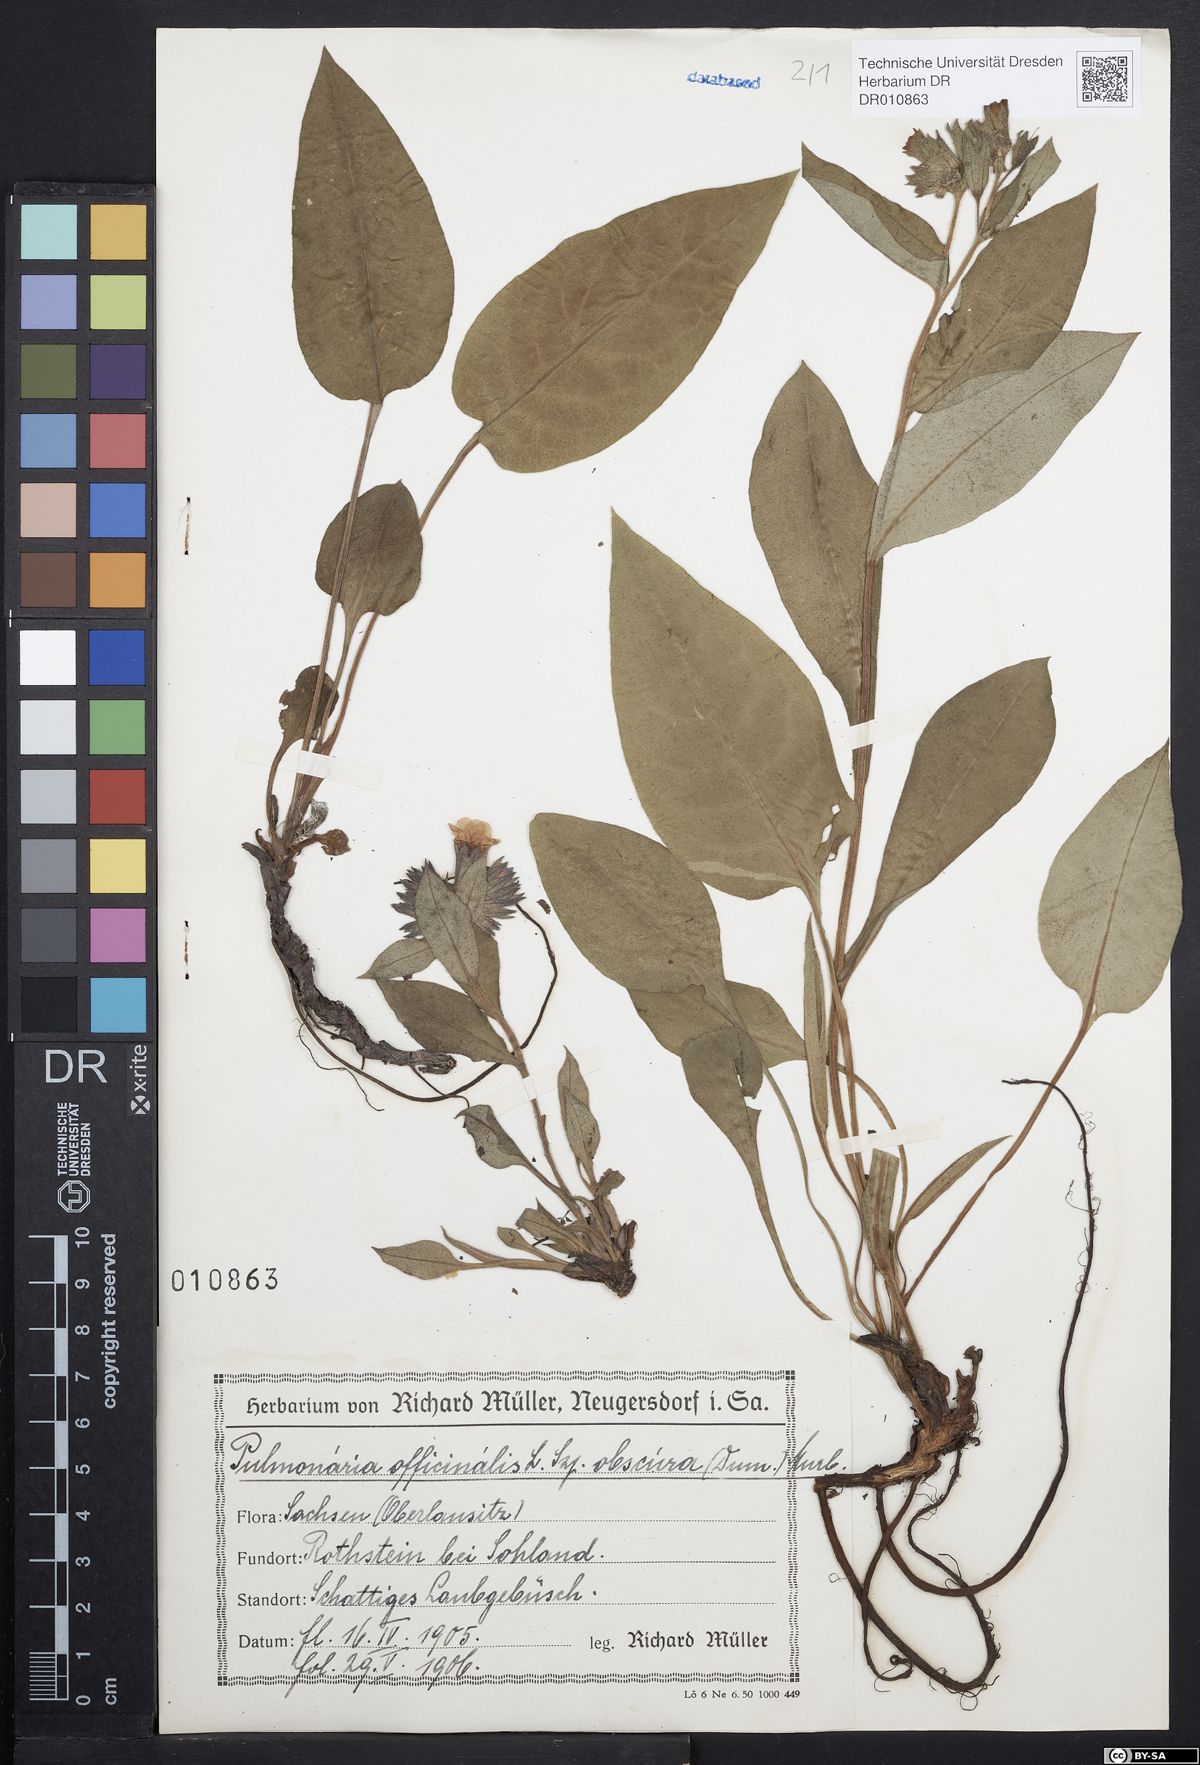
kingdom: Plantae
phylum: Tracheophyta
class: Magnoliopsida
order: Boraginales
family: Boraginaceae
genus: Pulmonaria
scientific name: Pulmonaria obscura
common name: Suffolk lungwort
